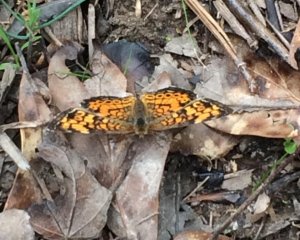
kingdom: Animalia
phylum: Arthropoda
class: Insecta
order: Lepidoptera
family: Nymphalidae
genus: Phyciodes
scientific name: Phyciodes tharos
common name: Pearl Crescent
